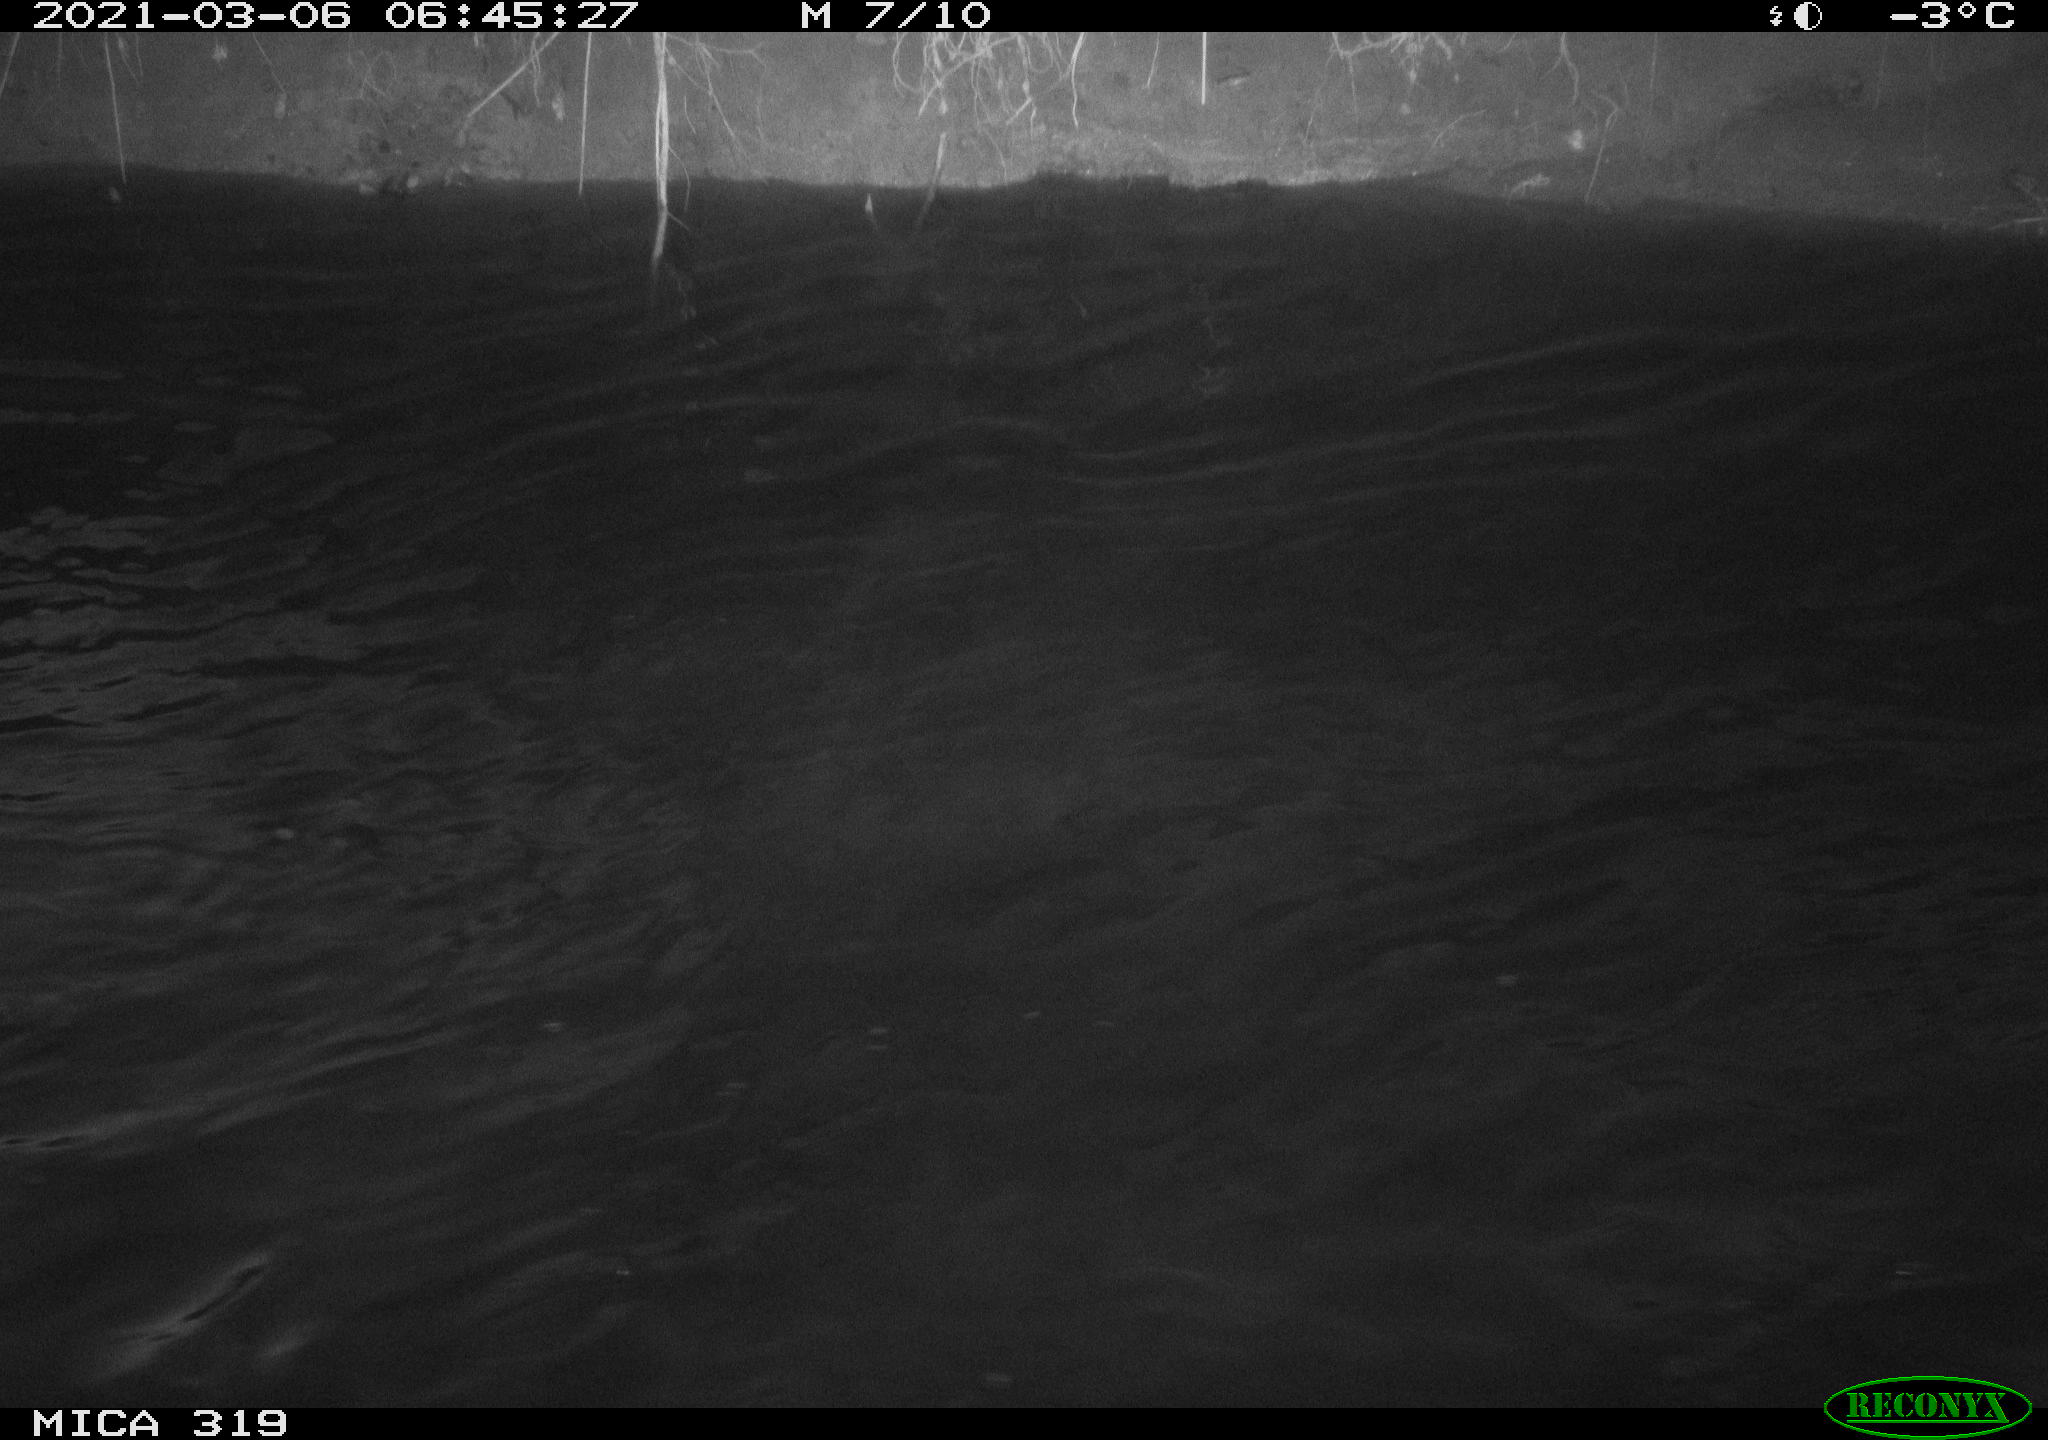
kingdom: Animalia
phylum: Chordata
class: Aves
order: Anseriformes
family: Anatidae
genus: Anas
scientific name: Anas platyrhynchos
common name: Mallard
